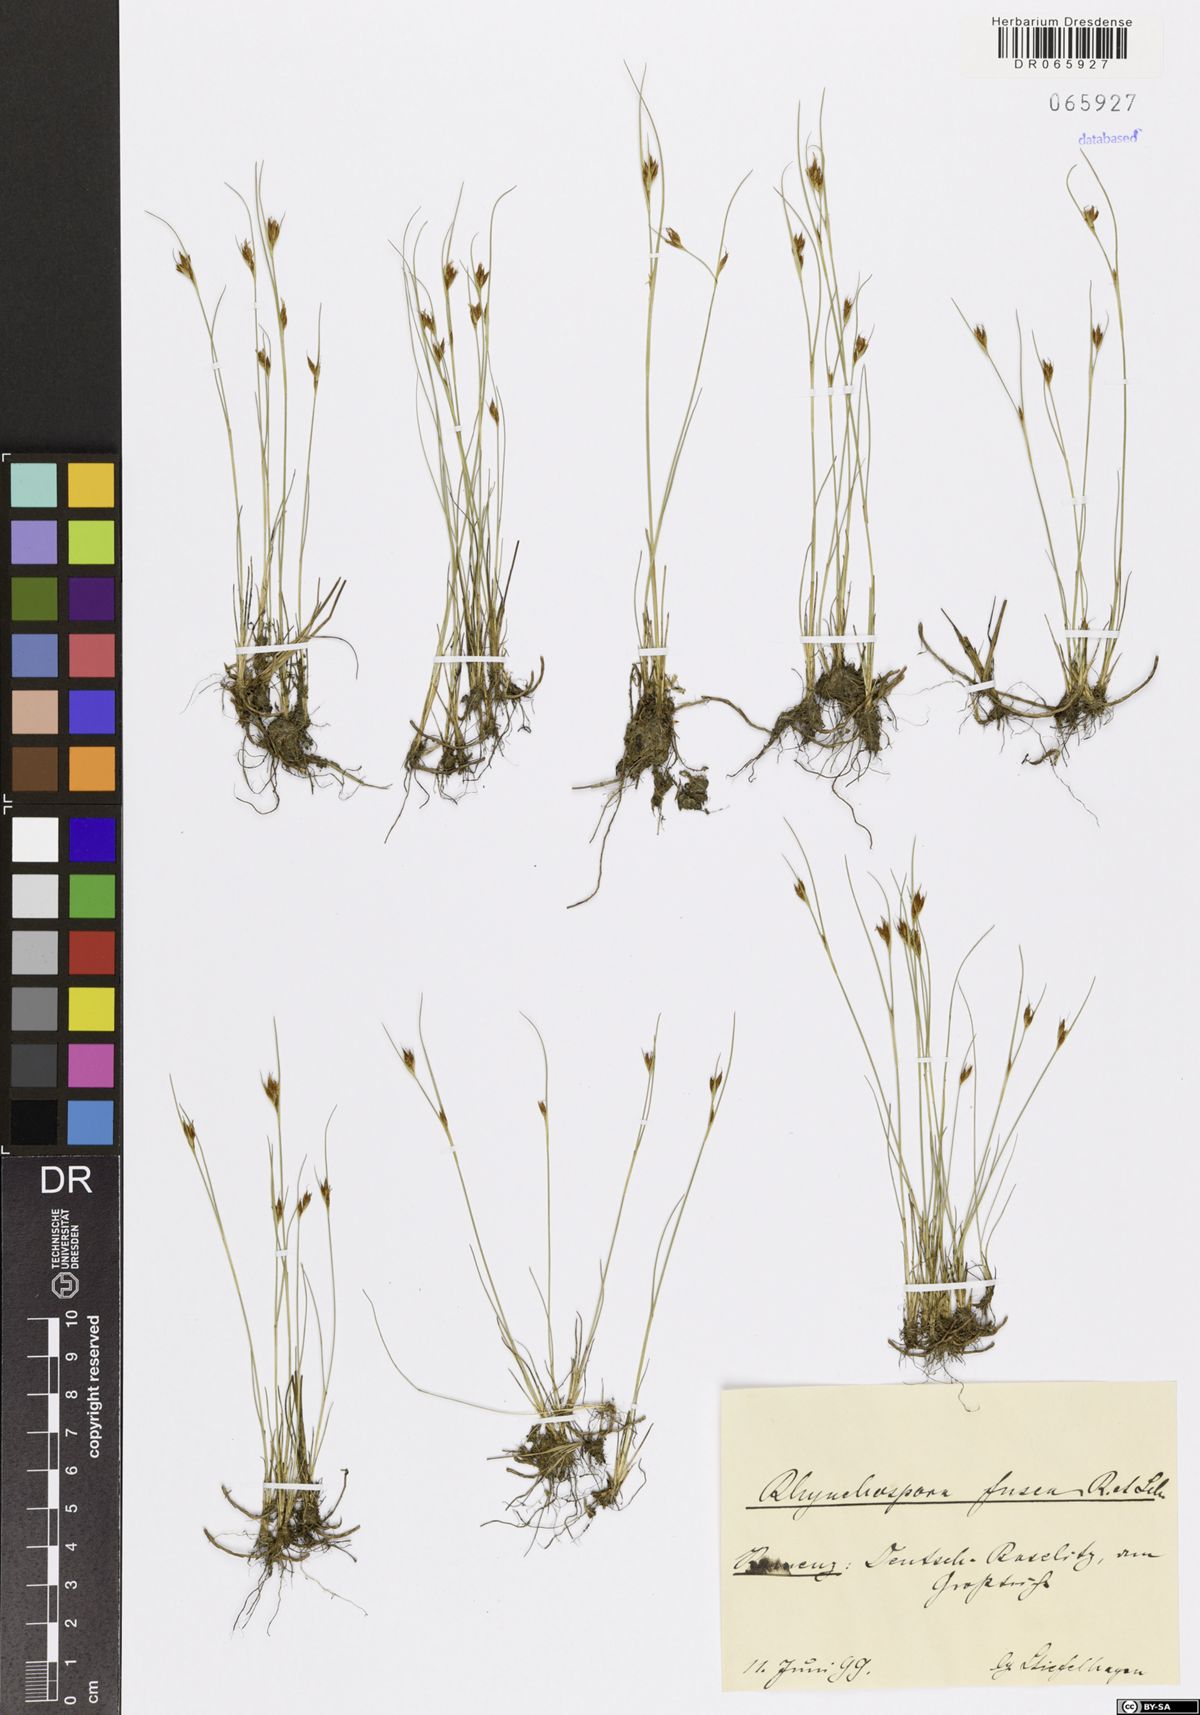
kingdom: Plantae
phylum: Tracheophyta
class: Liliopsida
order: Poales
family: Cyperaceae
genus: Rhynchospora
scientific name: Rhynchospora fusca
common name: Brown beak-sedge
